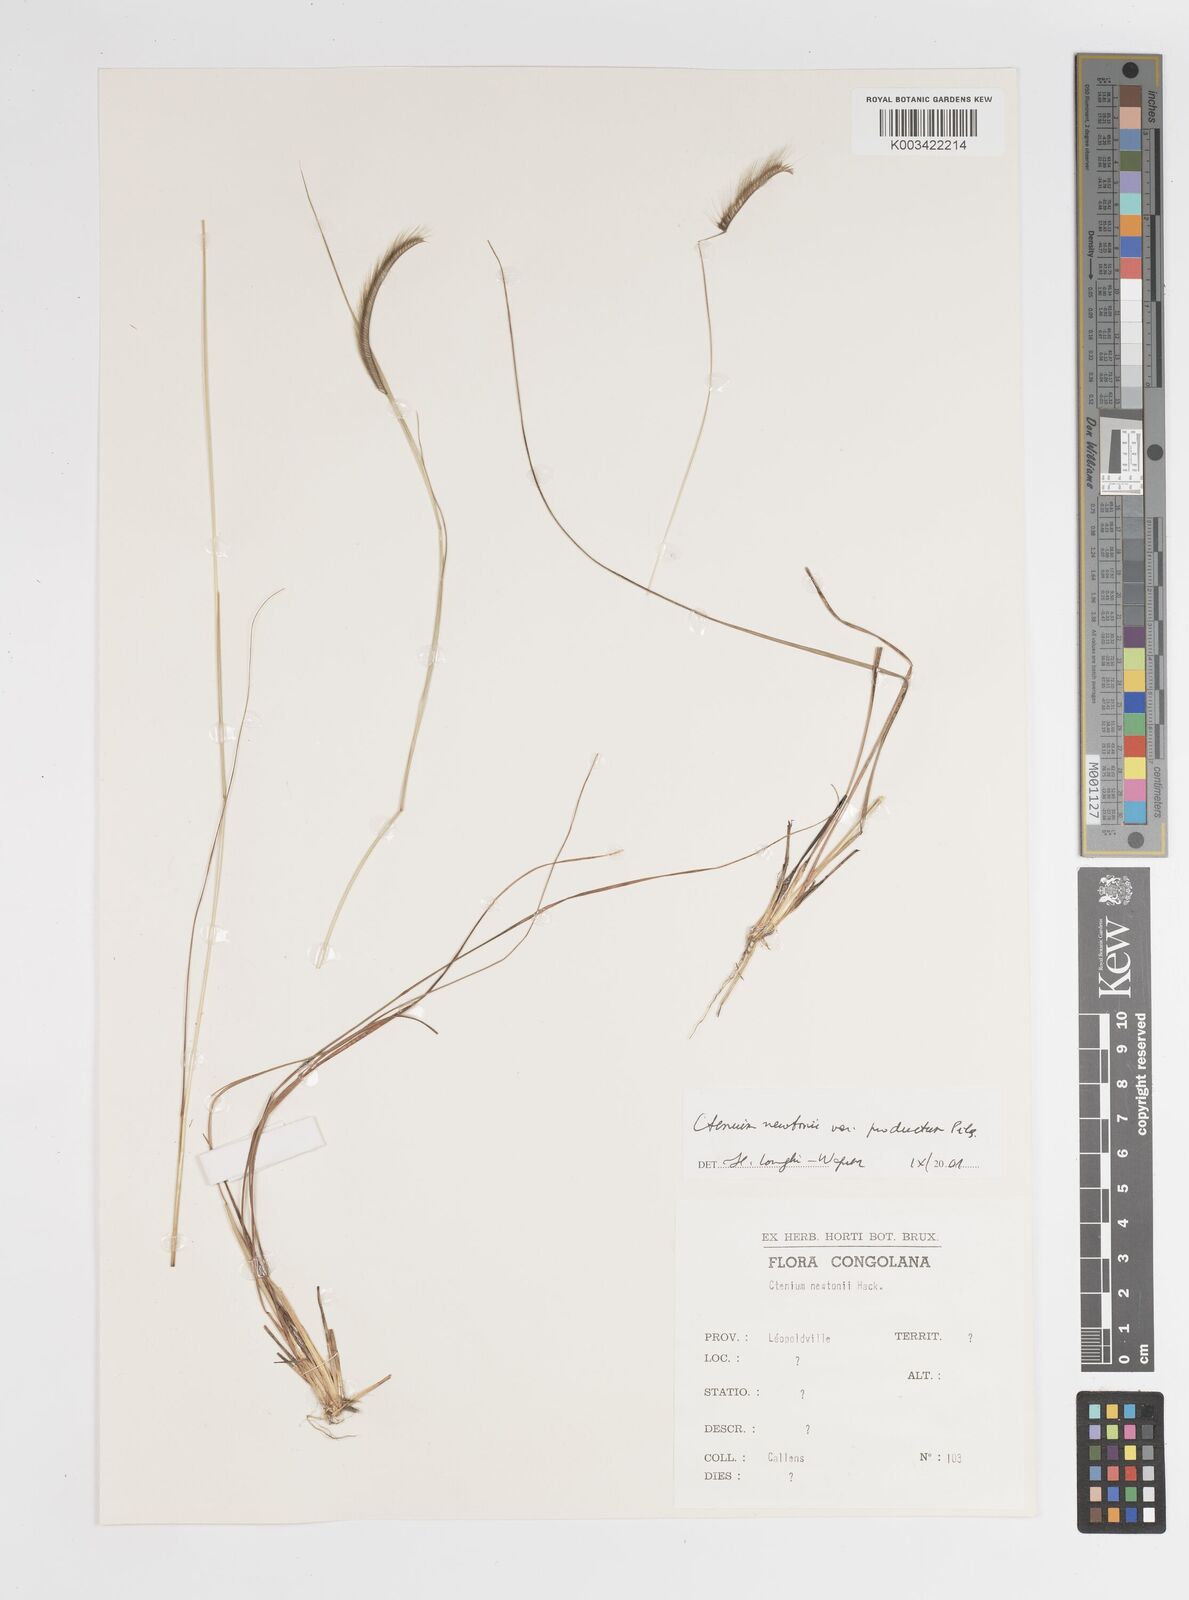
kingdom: Plantae
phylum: Tracheophyta
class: Liliopsida
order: Poales
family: Poaceae
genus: Ctenium
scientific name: Ctenium newtonii
